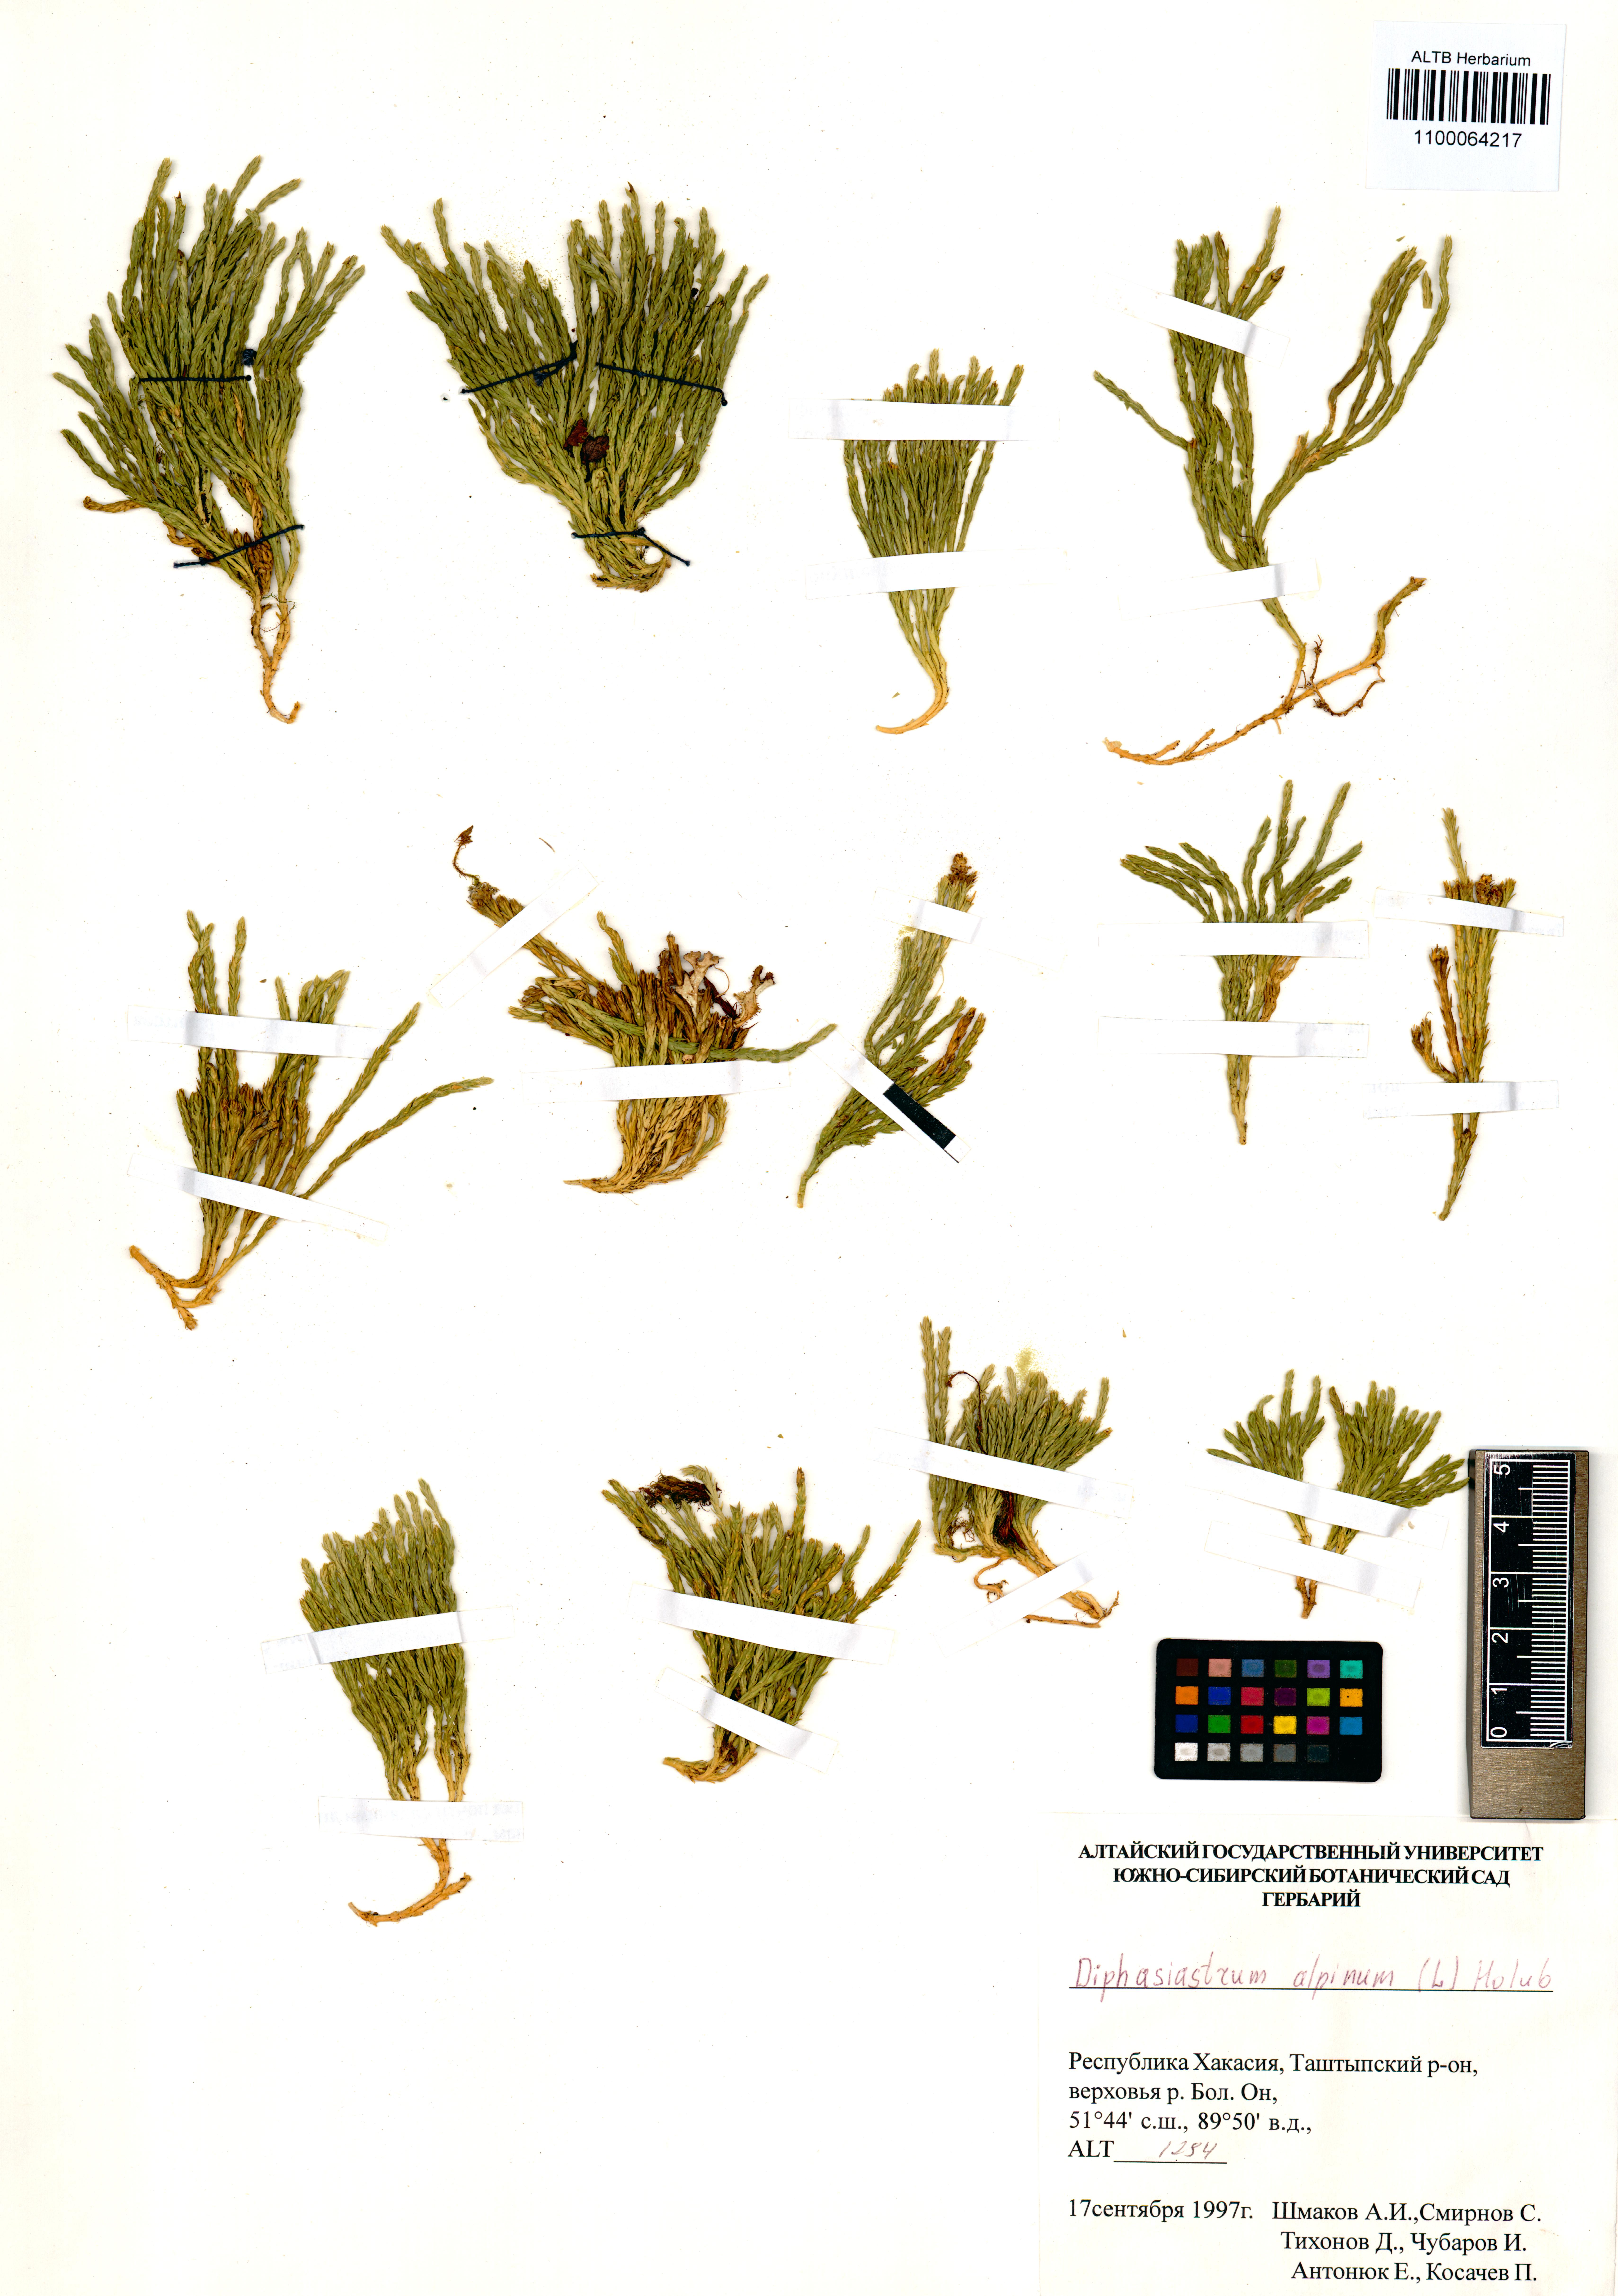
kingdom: Plantae
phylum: Tracheophyta
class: Lycopodiopsida
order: Lycopodiales
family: Lycopodiaceae
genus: Diphasiastrum
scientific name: Diphasiastrum alpinum
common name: Alpine clubmoss
